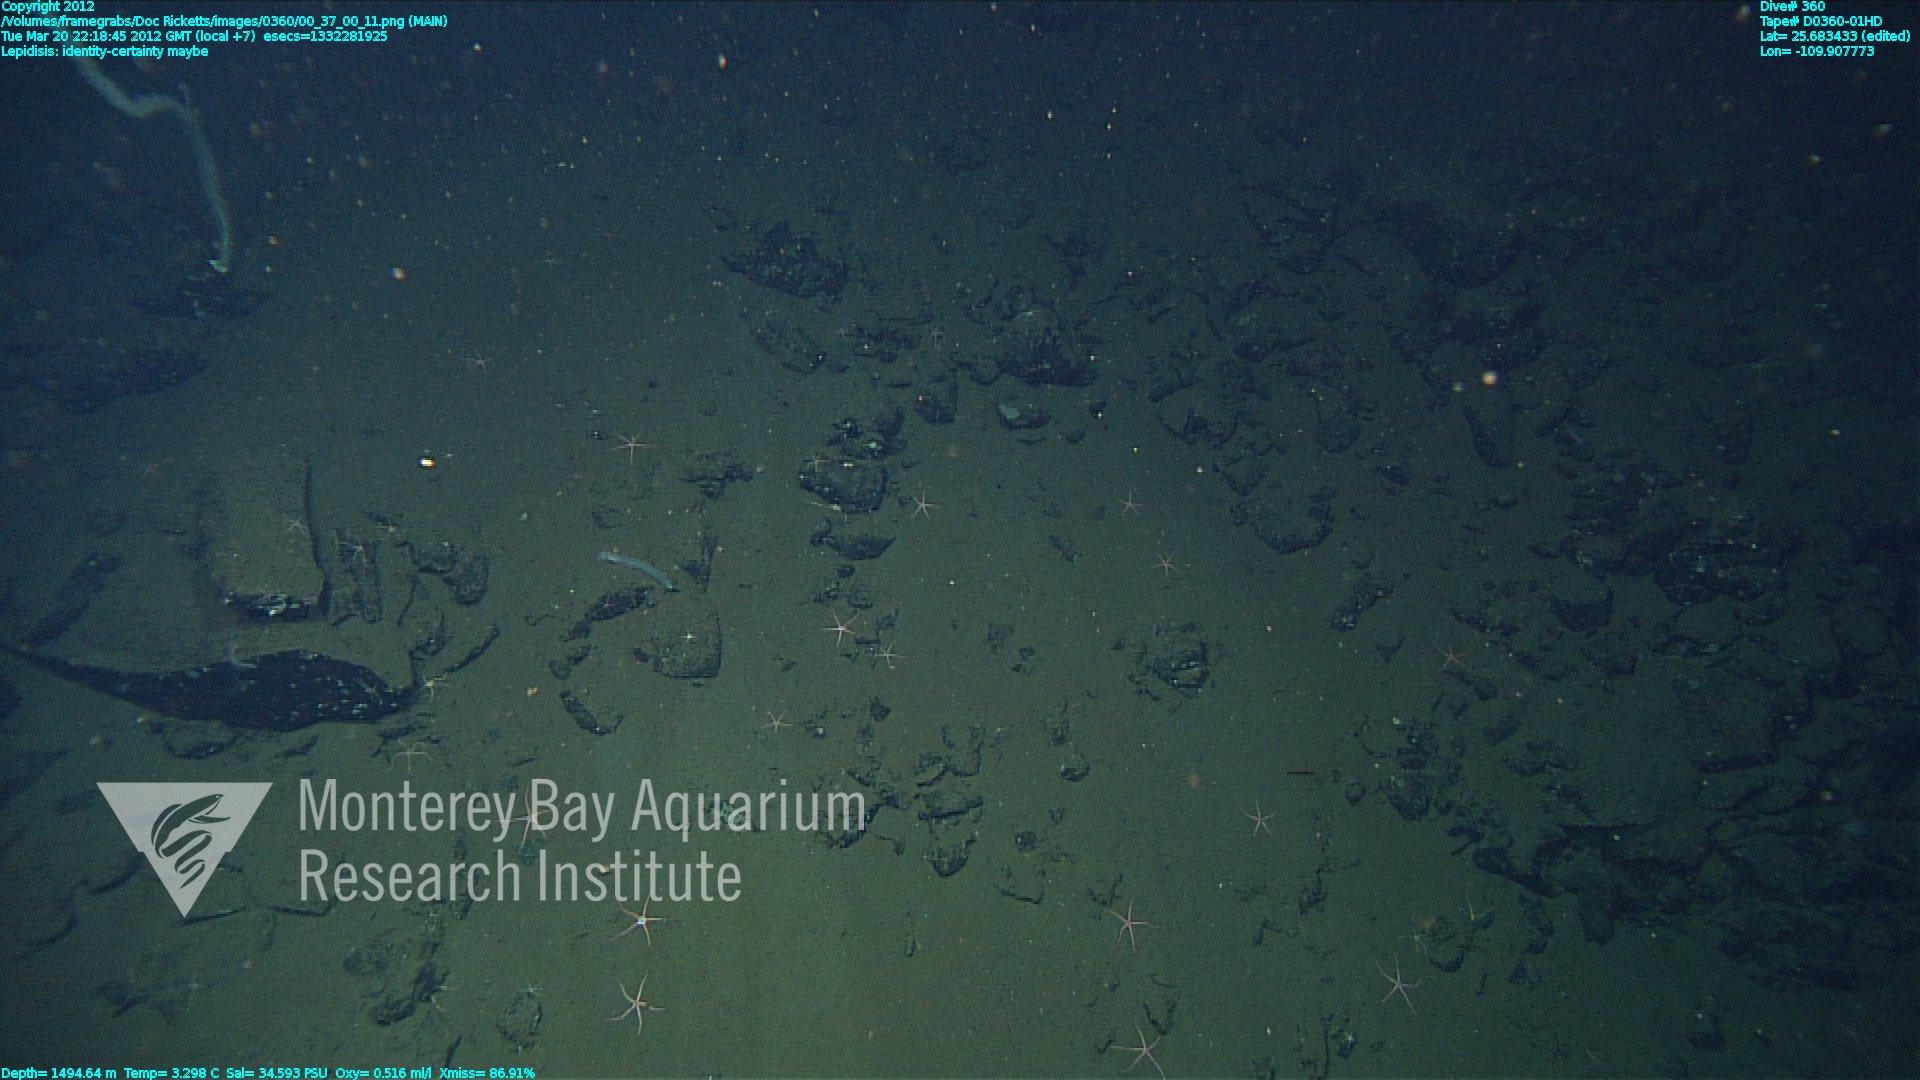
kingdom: Animalia
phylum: Cnidaria
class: Anthozoa
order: Scleralcyonacea
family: Keratoisididae
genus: Lepidisis
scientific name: Lepidisis
